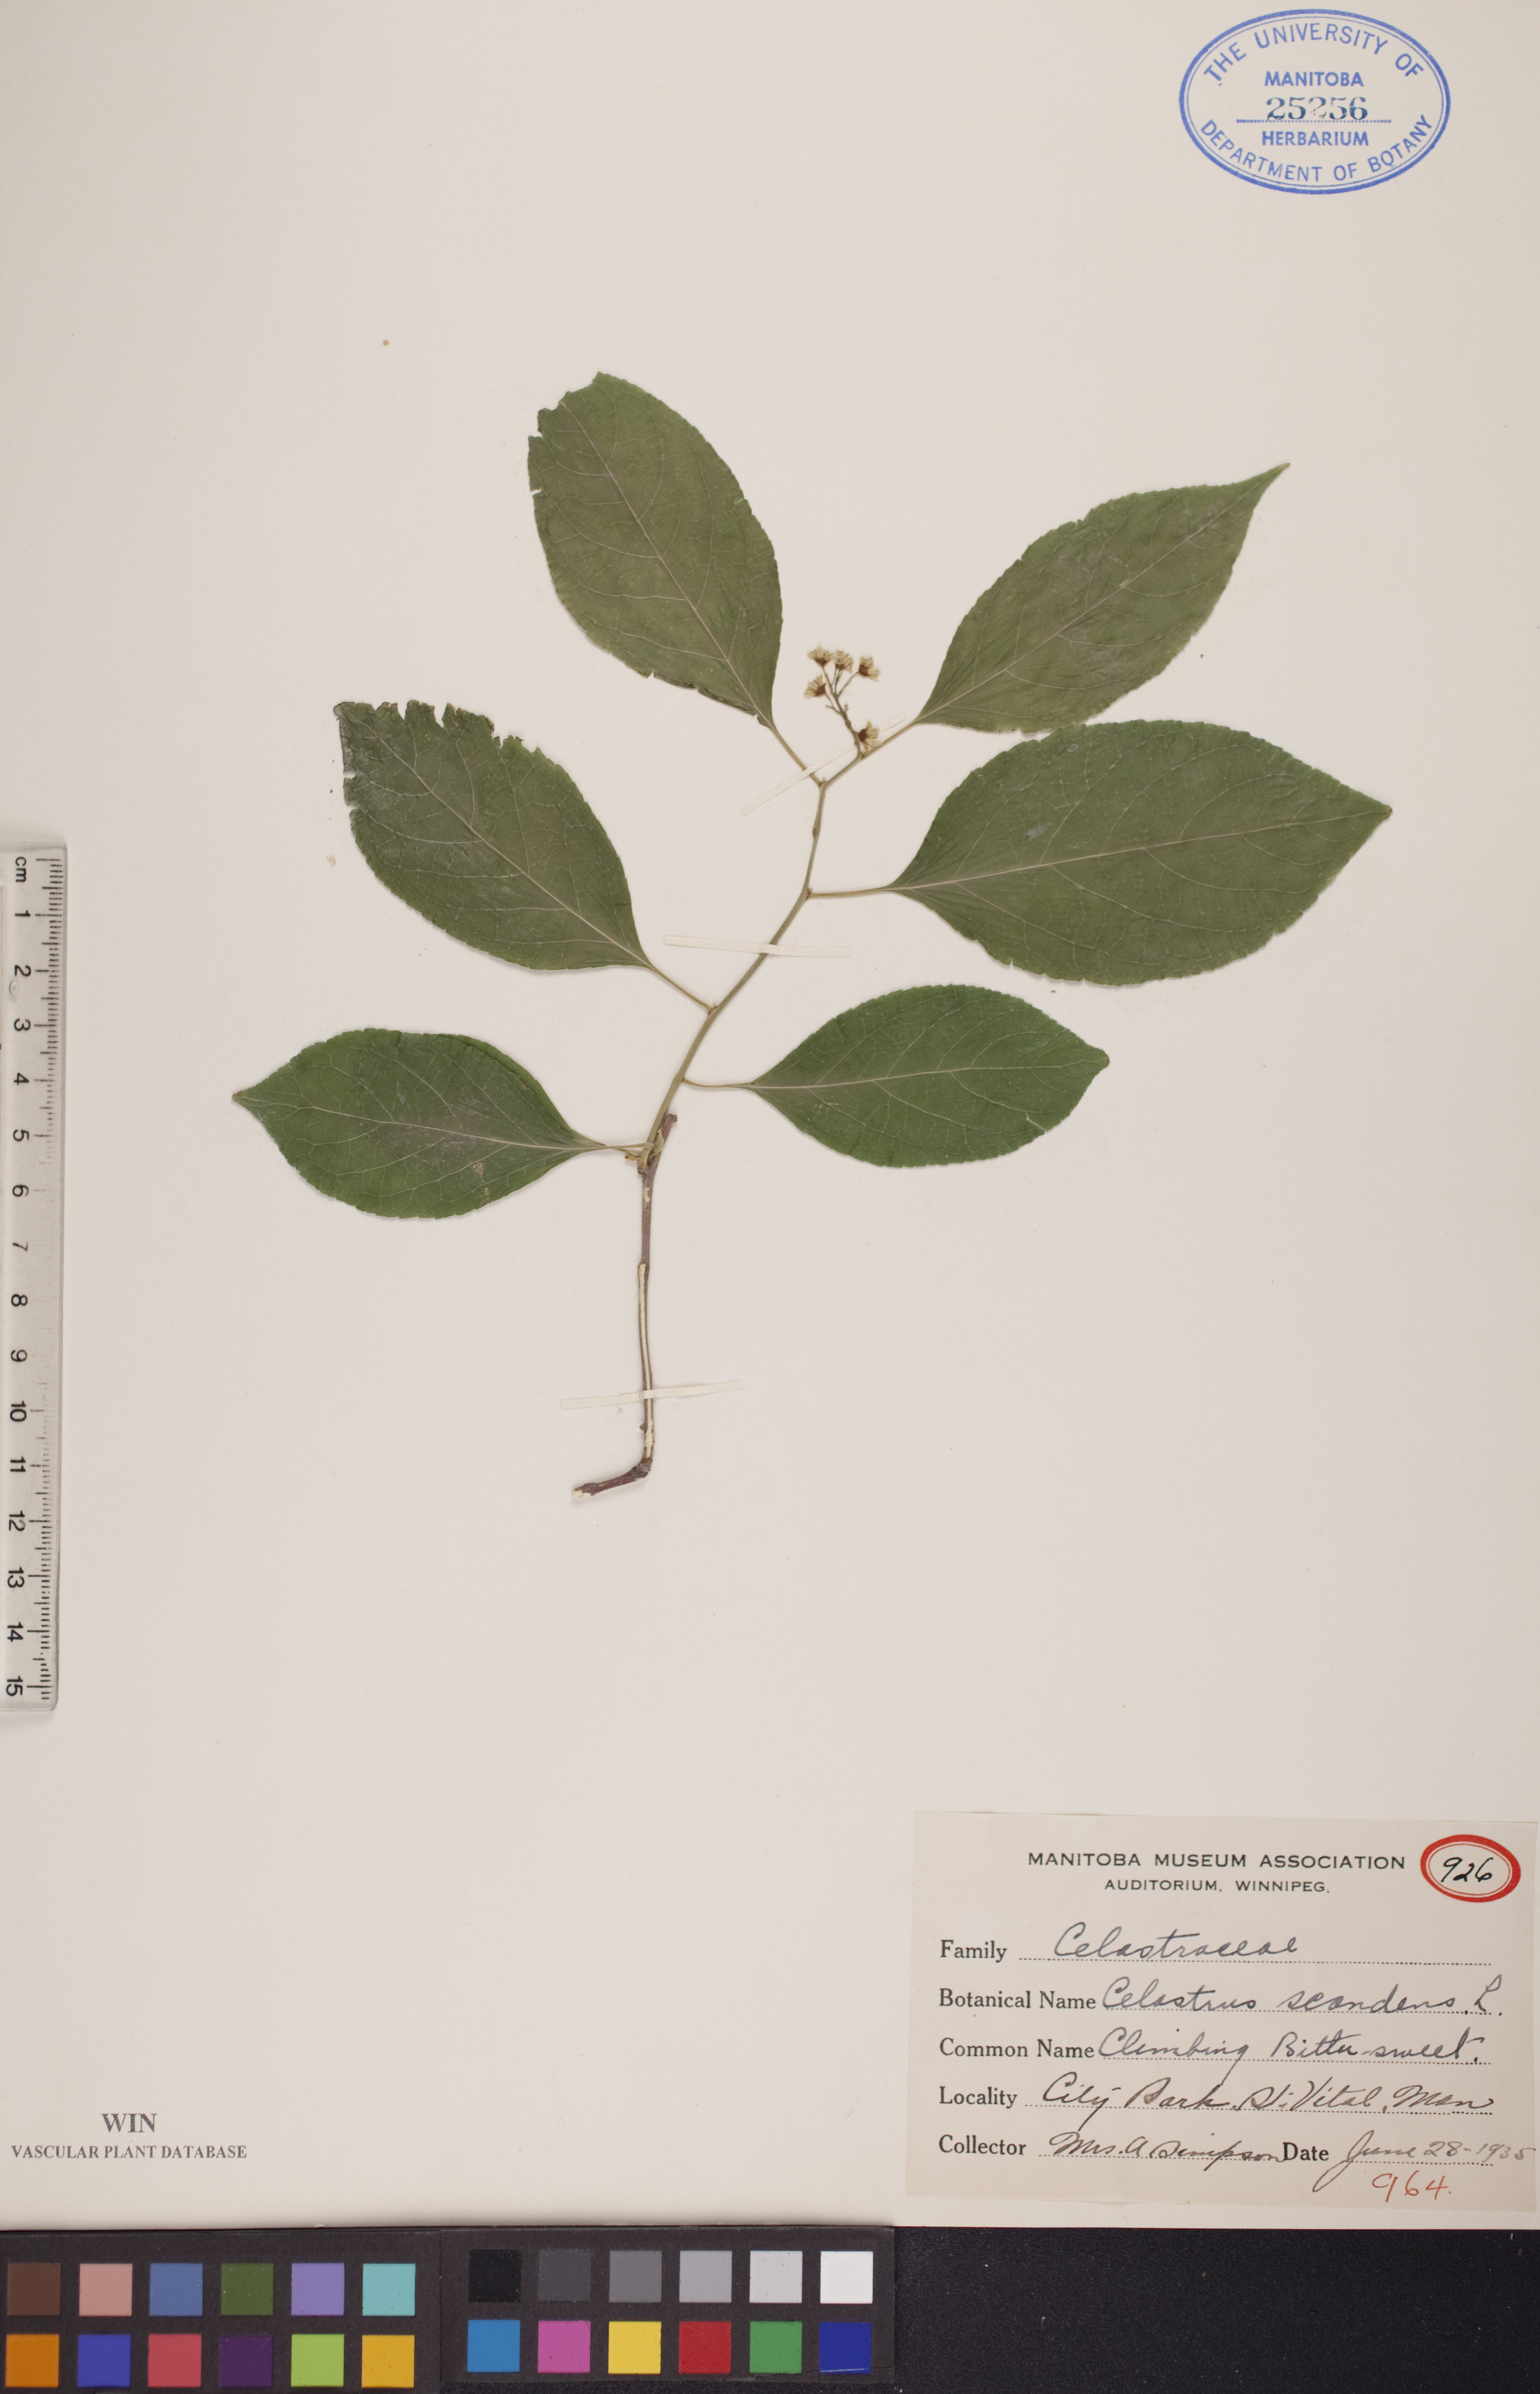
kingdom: Plantae
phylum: Tracheophyta
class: Magnoliopsida
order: Celastrales
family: Celastraceae
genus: Celastrus
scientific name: Celastrus scandens
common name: American bittersweet
